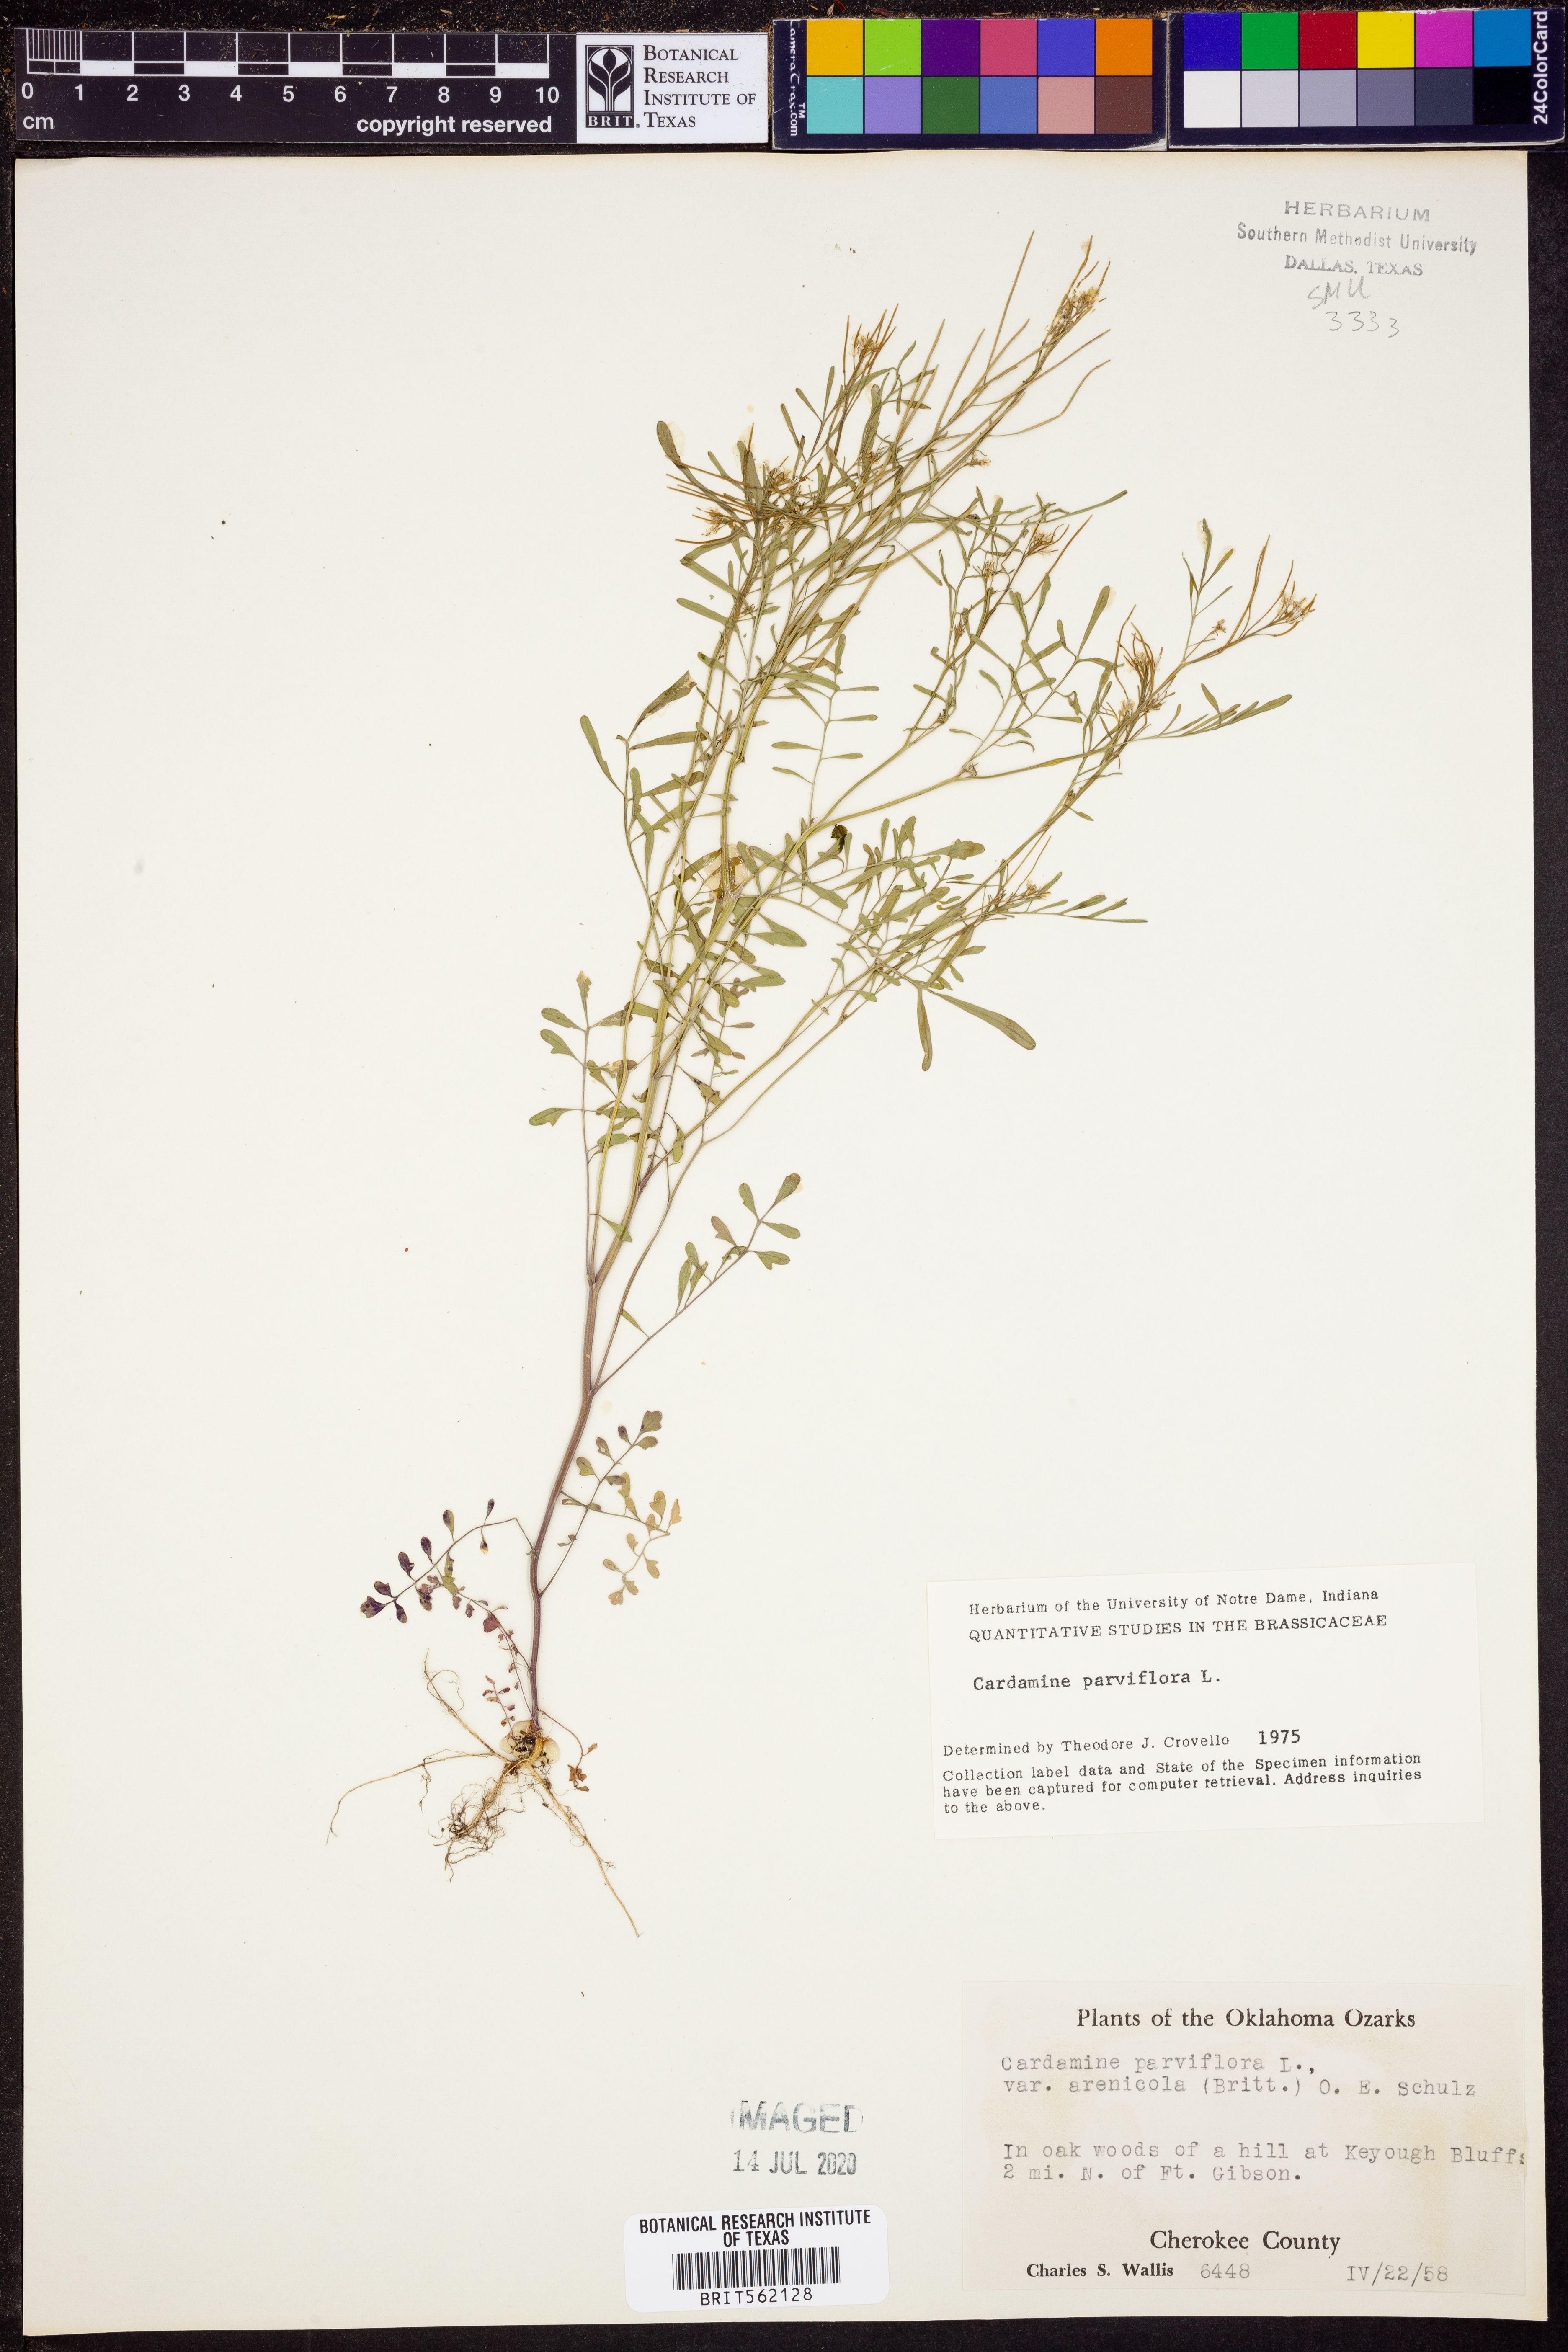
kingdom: Plantae
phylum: Tracheophyta
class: Magnoliopsida
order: Brassicales
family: Brassicaceae
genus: Cardamine
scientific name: Cardamine parviflora
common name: Sand bittercress
